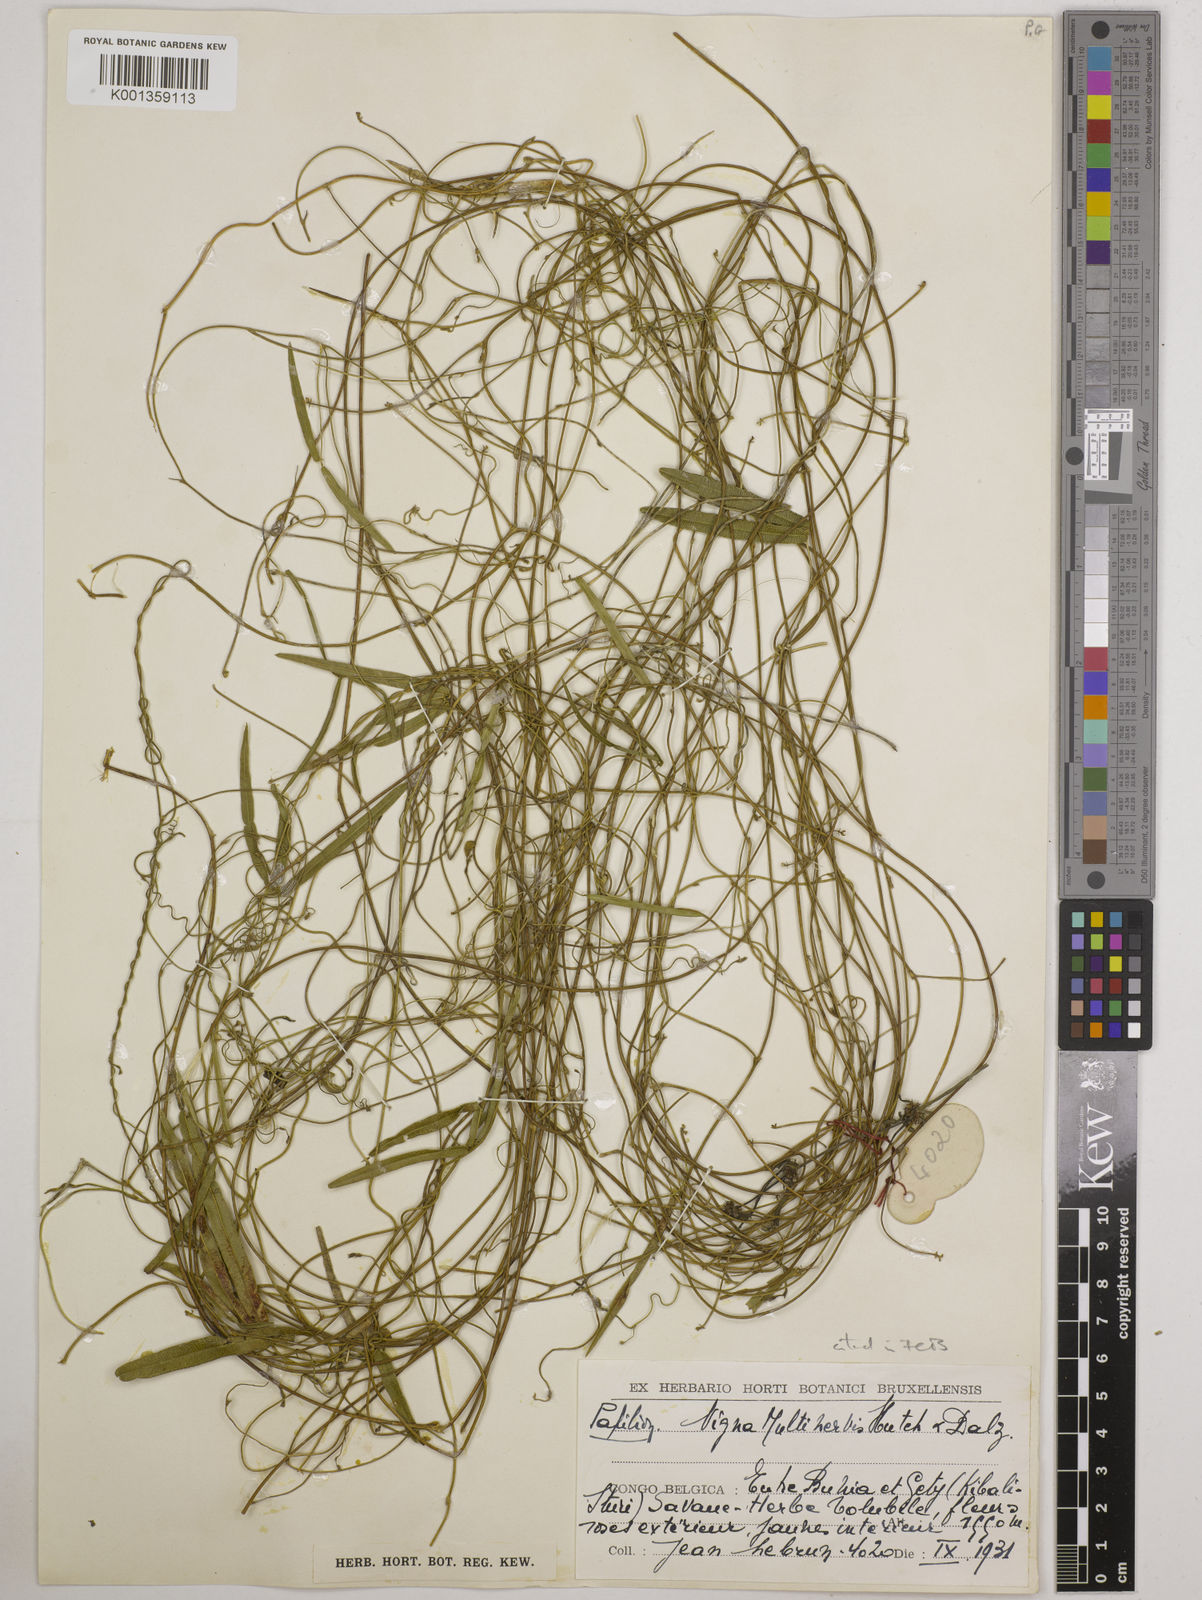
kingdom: Plantae
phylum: Tracheophyta
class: Magnoliopsida
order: Fabales
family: Fabaceae
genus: Vigna
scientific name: Vigna multinervis
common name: Fula-pulaar
